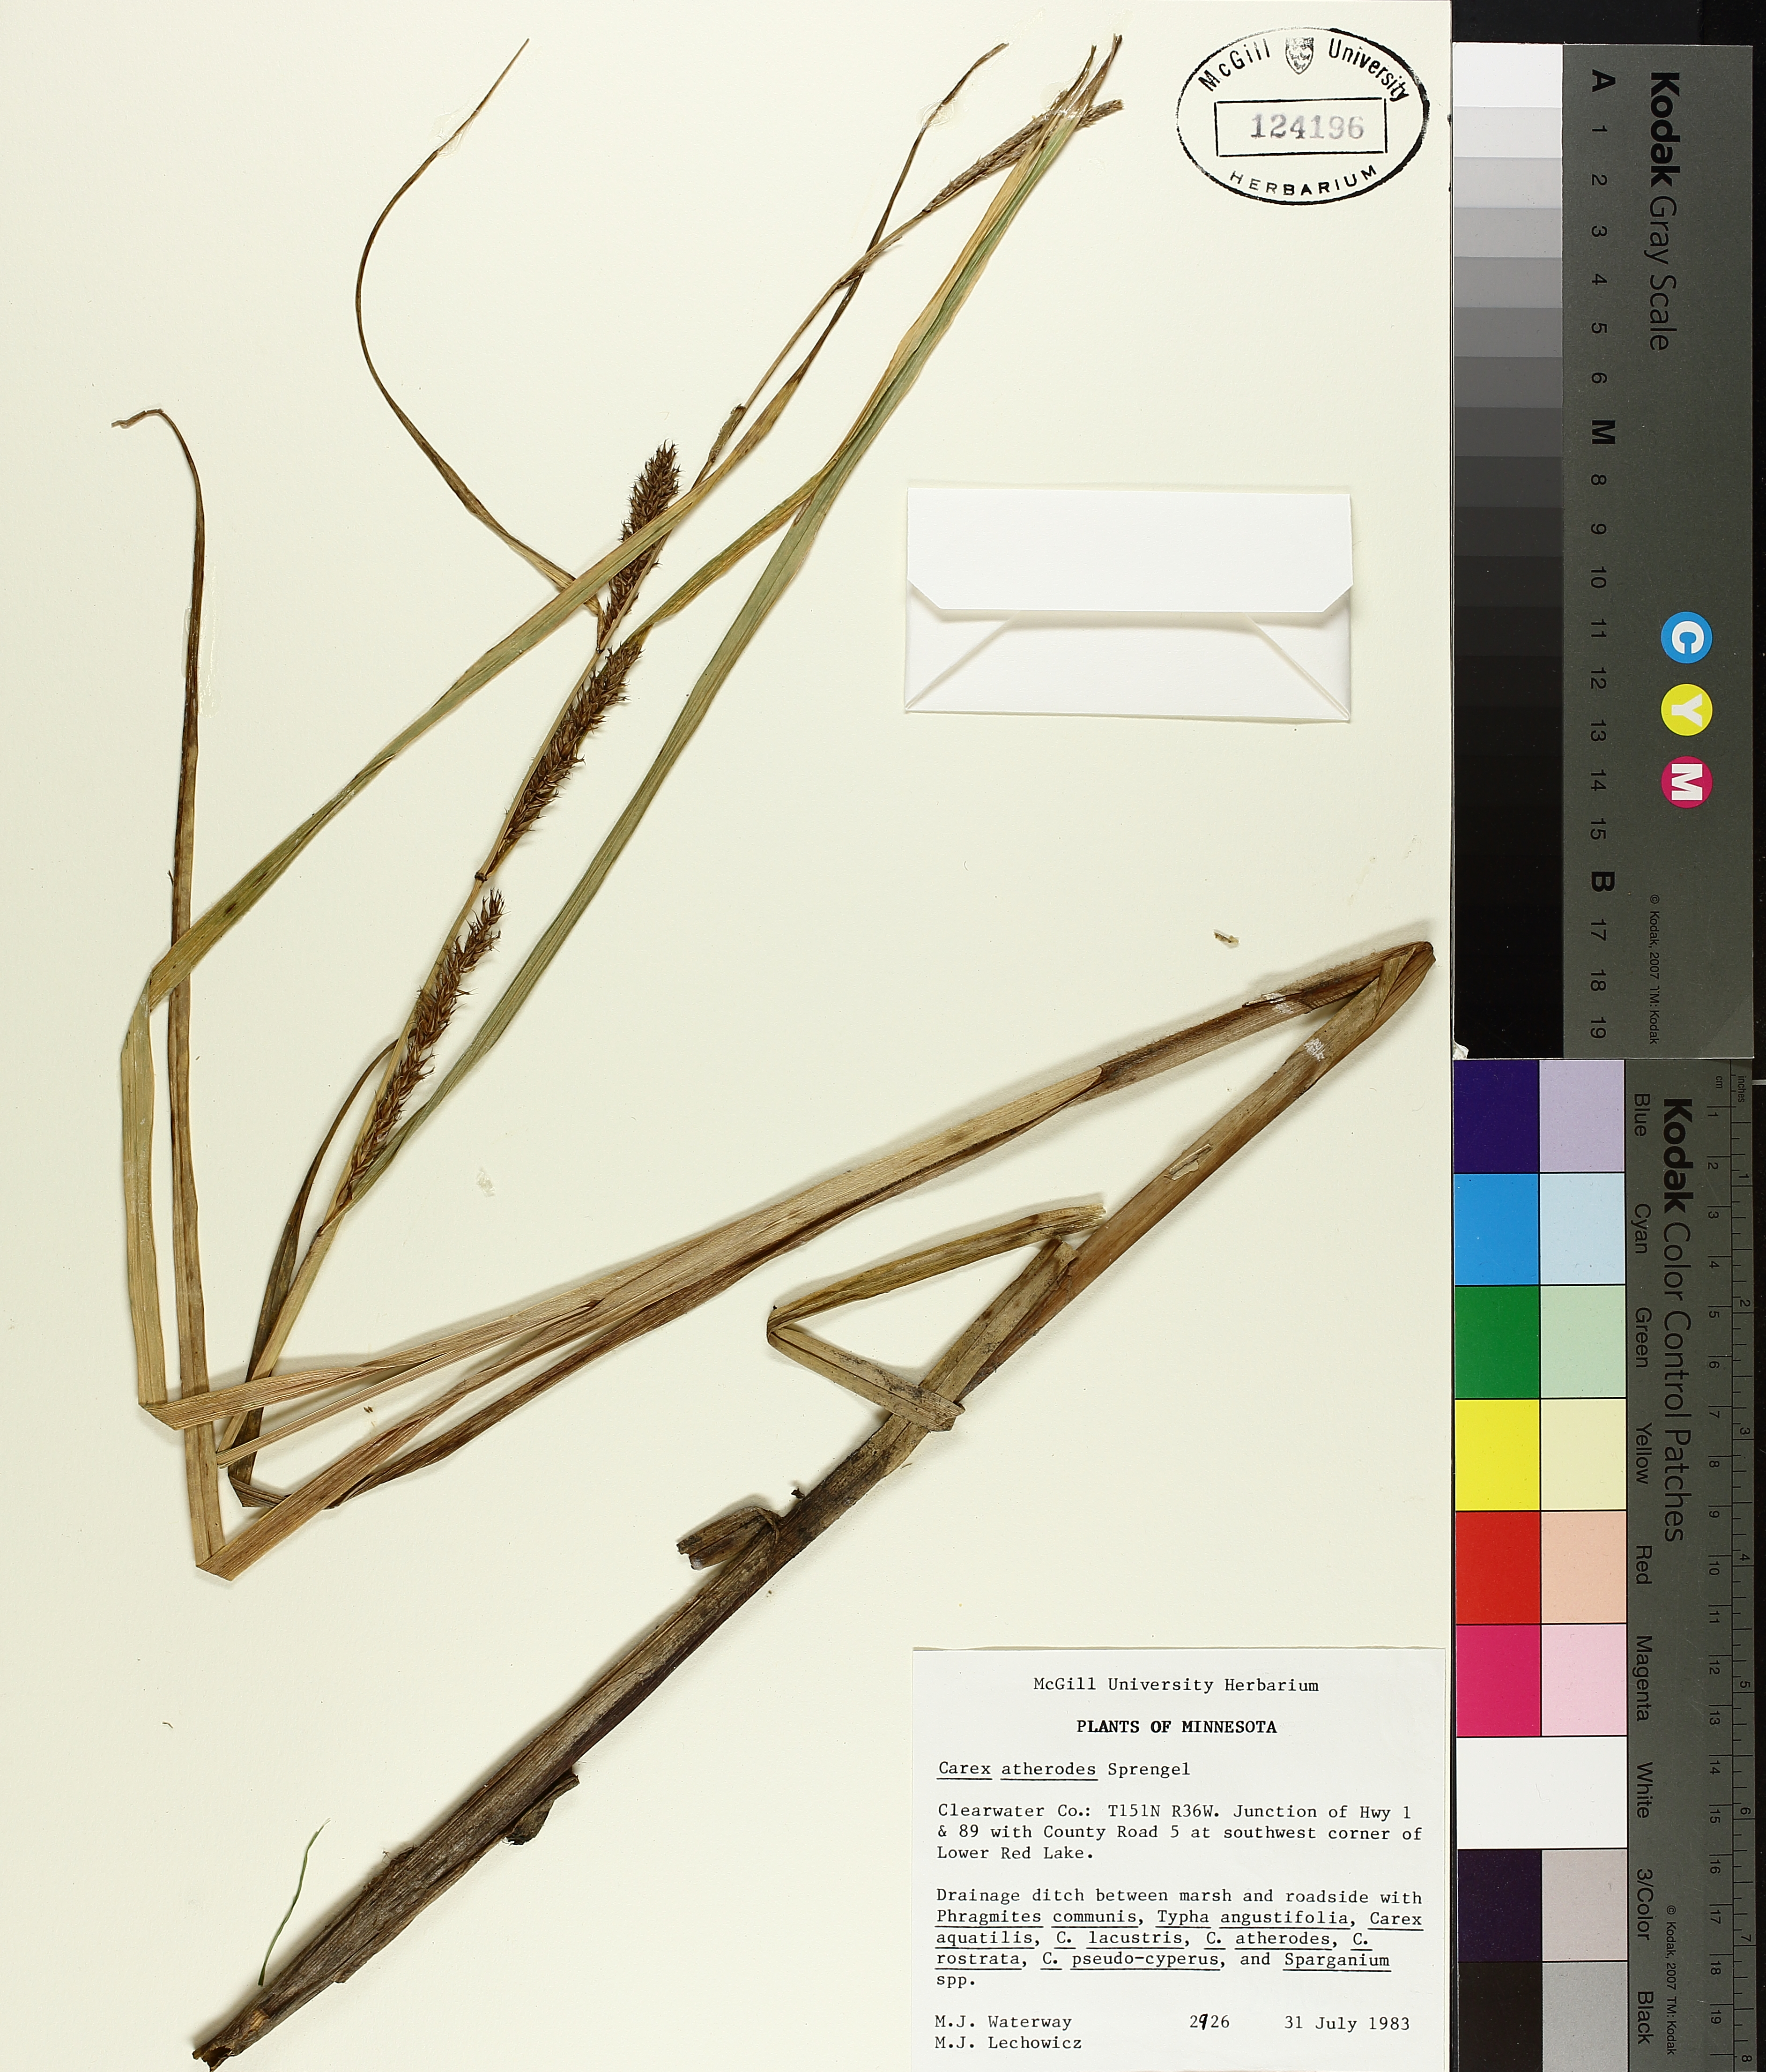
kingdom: Plantae
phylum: Tracheophyta
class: Liliopsida
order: Poales
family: Cyperaceae
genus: Carex
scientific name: Carex atherodes
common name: Wheat sedge
